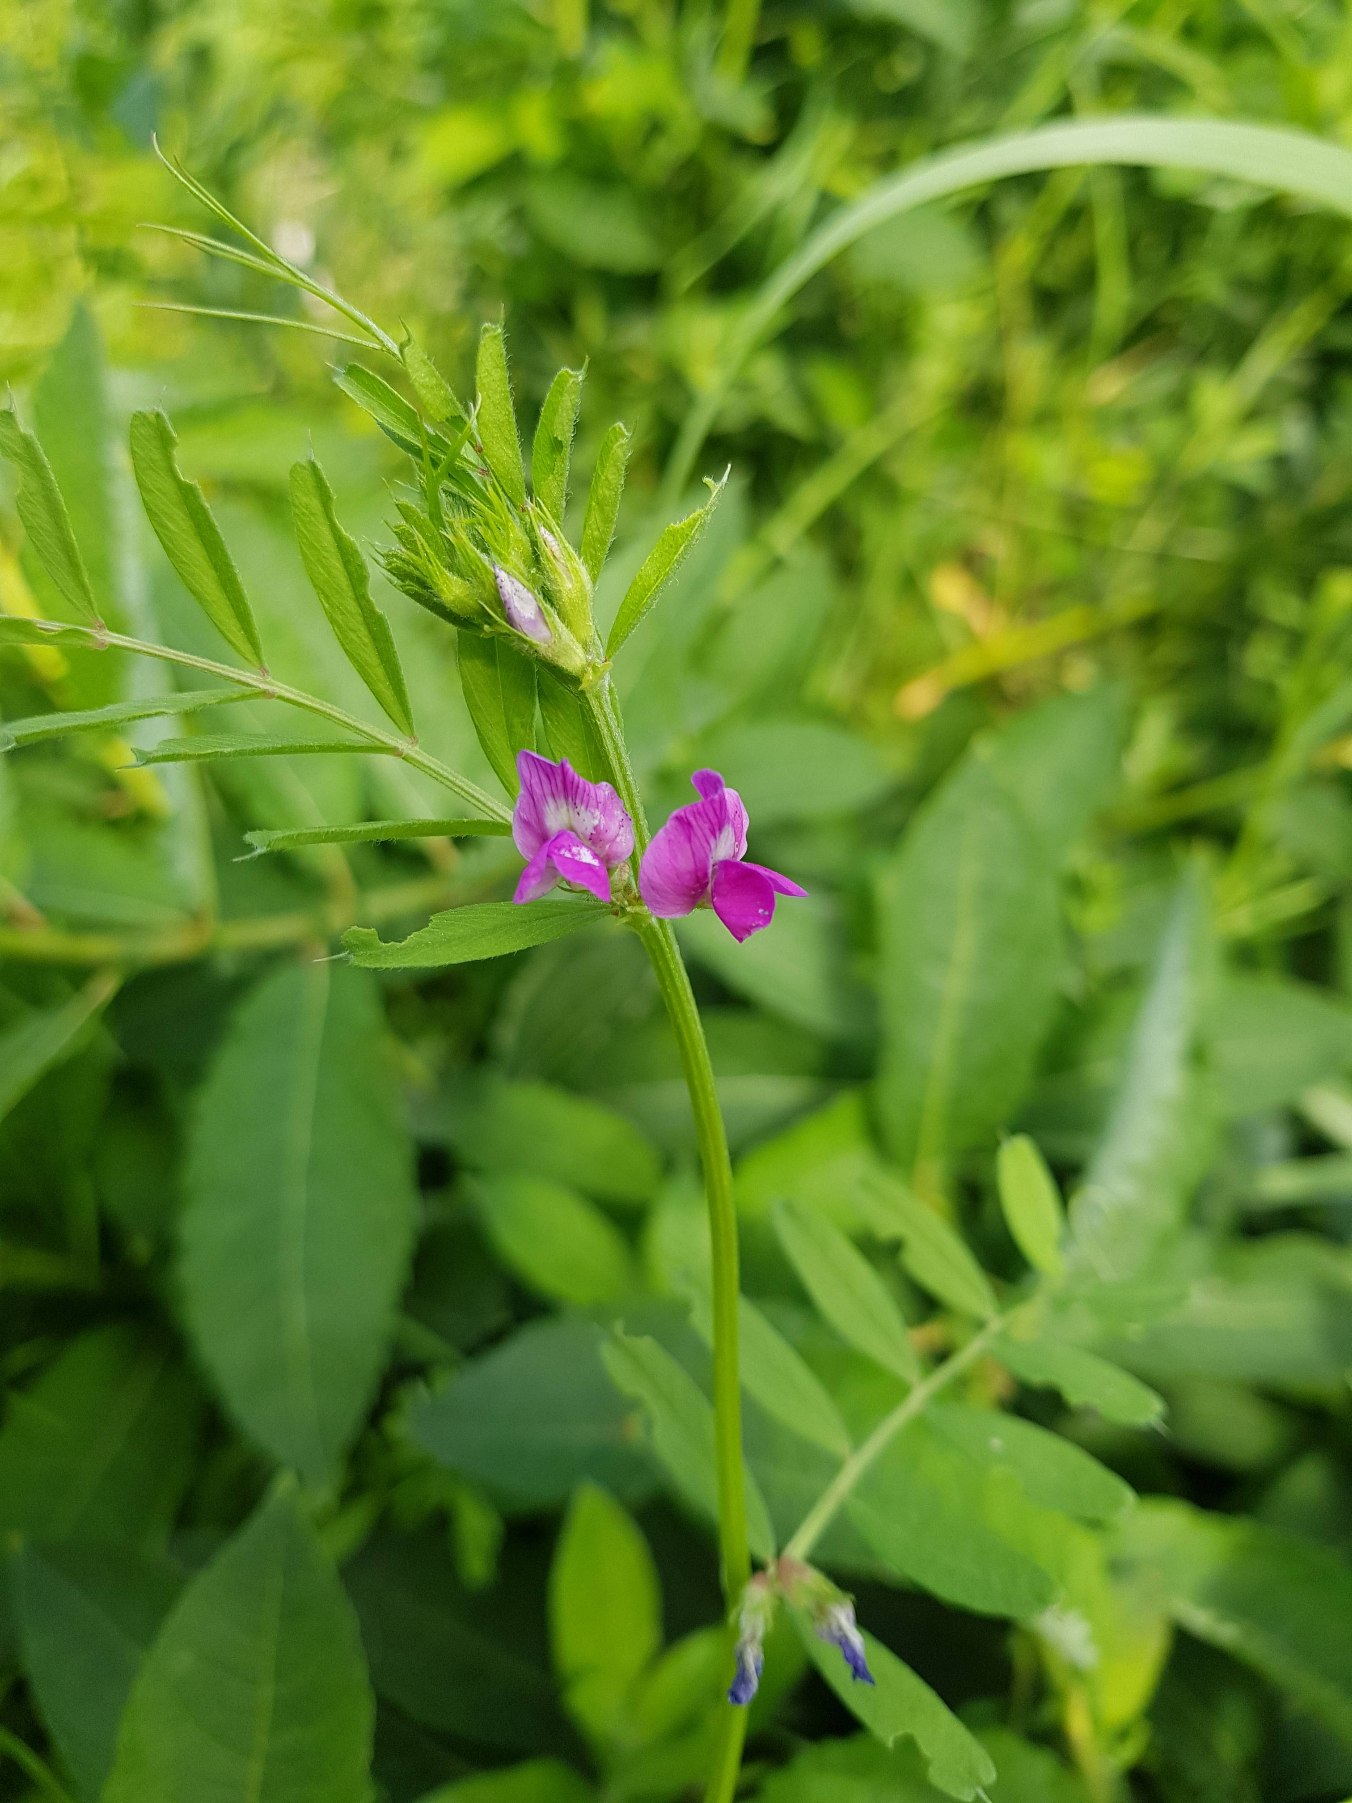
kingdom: Plantae
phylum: Tracheophyta
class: Magnoliopsida
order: Fabales
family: Fabaceae
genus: Vicia
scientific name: Vicia sativa
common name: Foder-vikke
